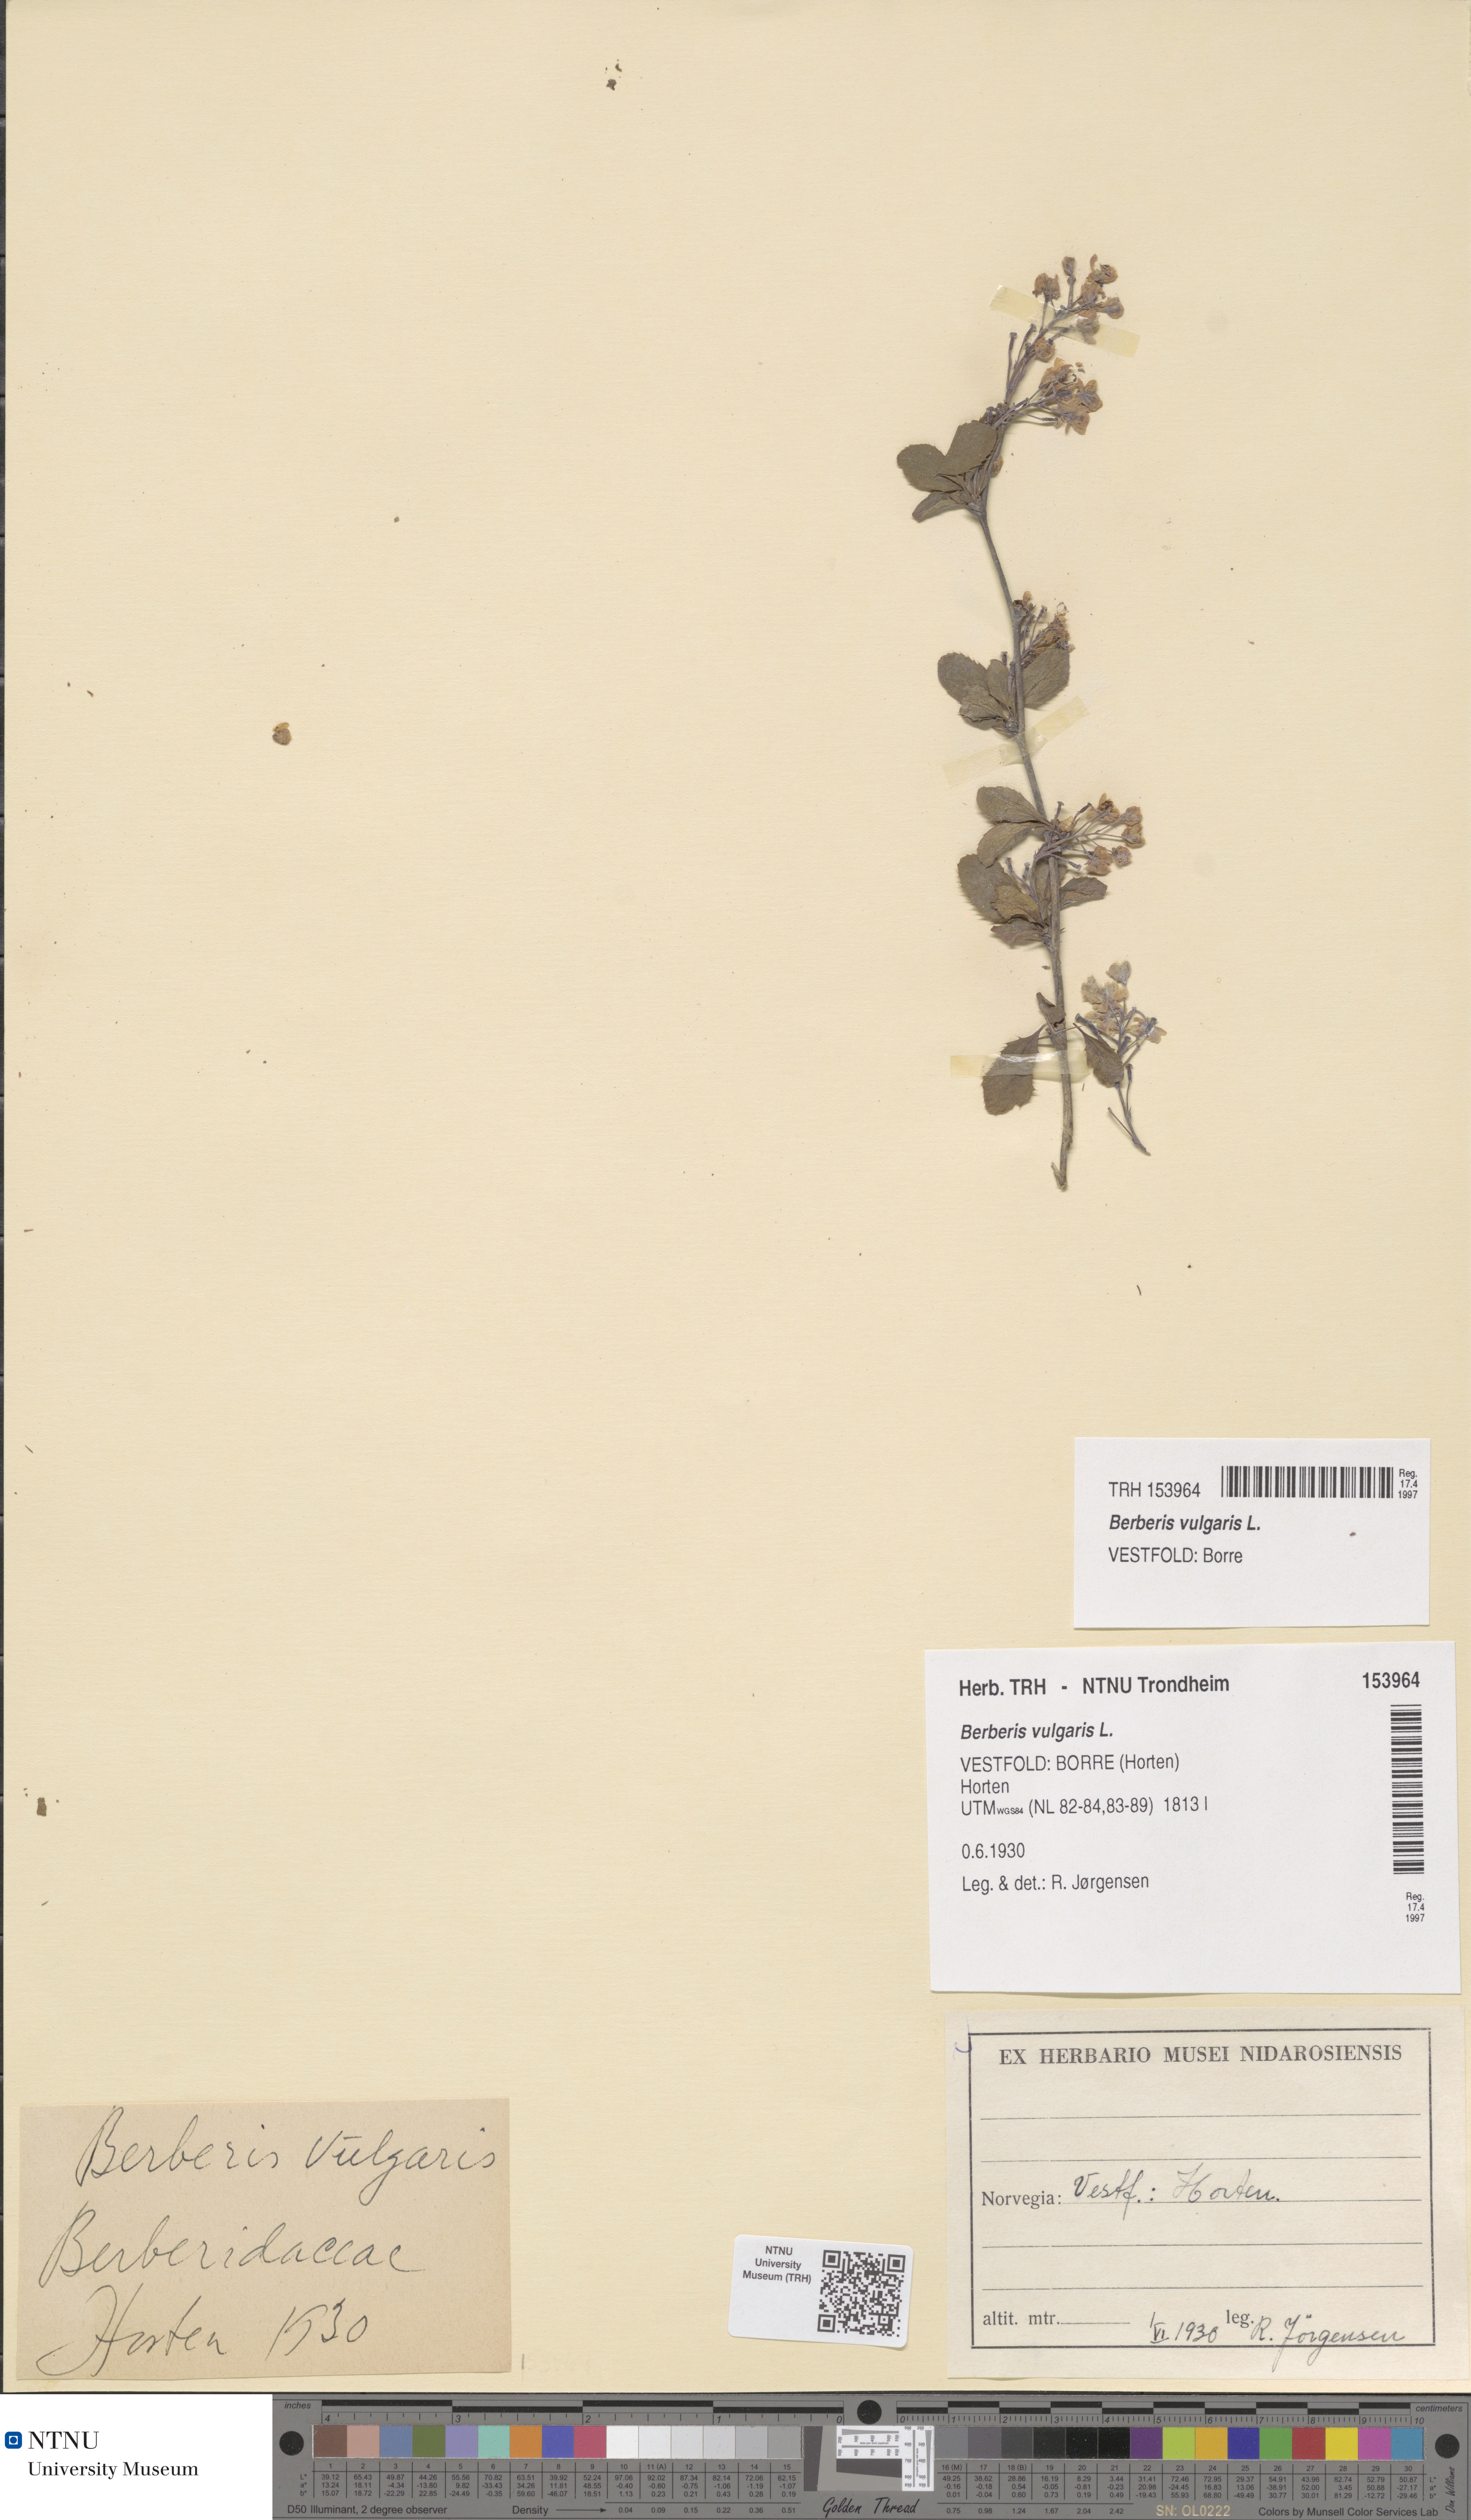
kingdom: Plantae
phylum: Tracheophyta
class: Magnoliopsida
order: Ranunculales
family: Berberidaceae
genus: Berberis
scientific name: Berberis vulgaris
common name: Barberry
